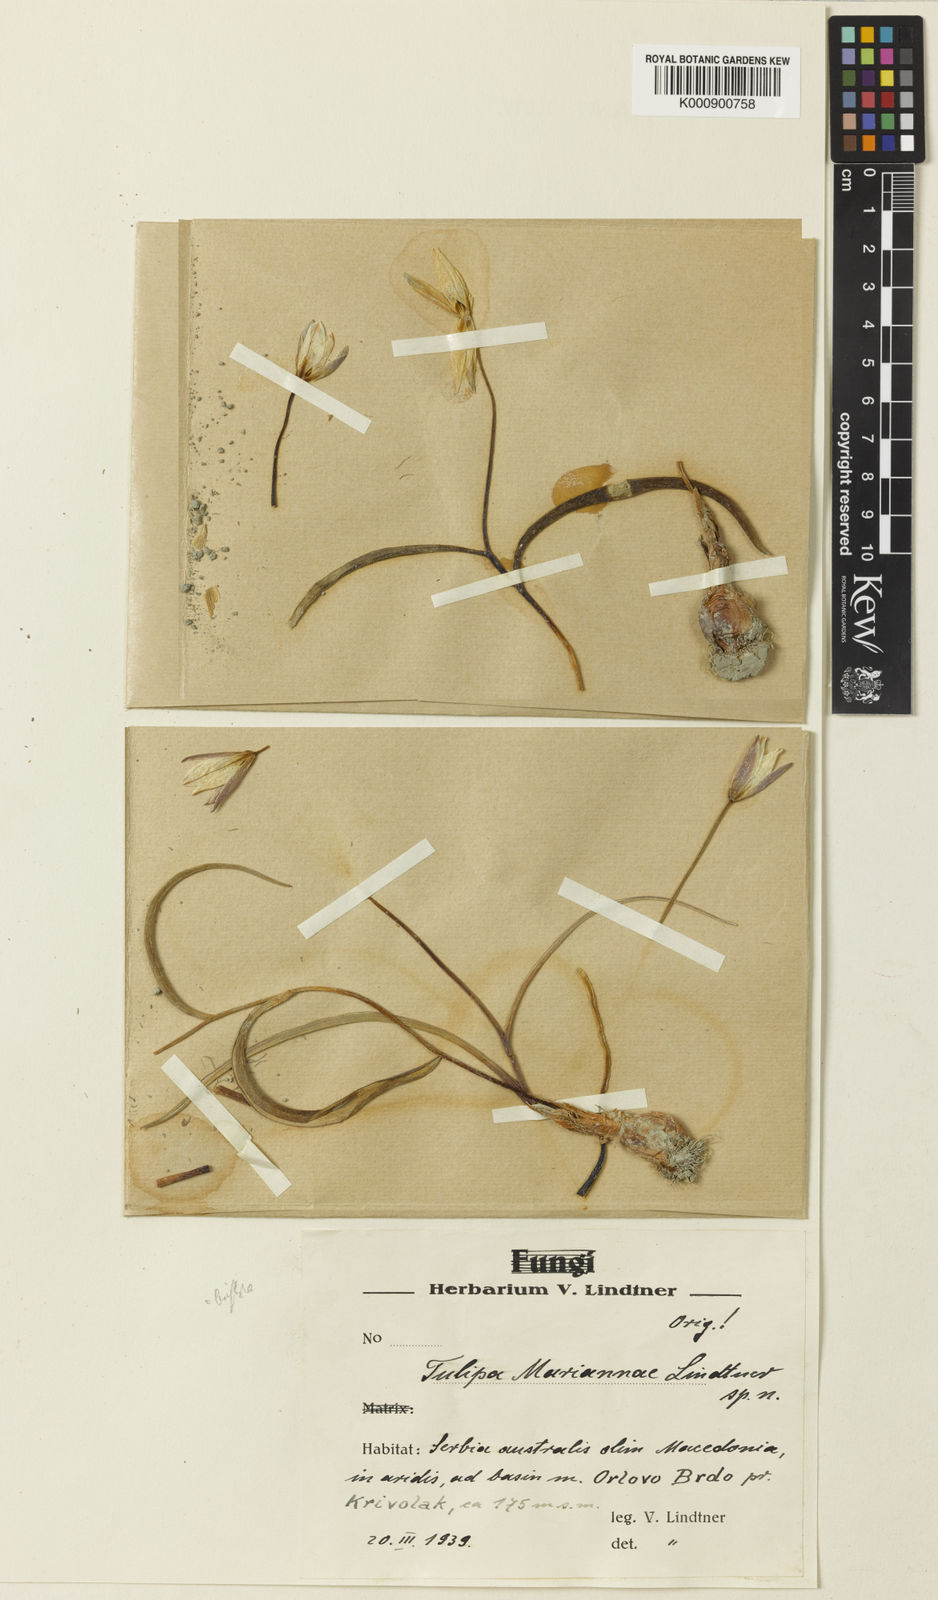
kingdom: Plantae
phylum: Tracheophyta
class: Liliopsida
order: Liliales
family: Liliaceae
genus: Tulipa
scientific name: Tulipa
